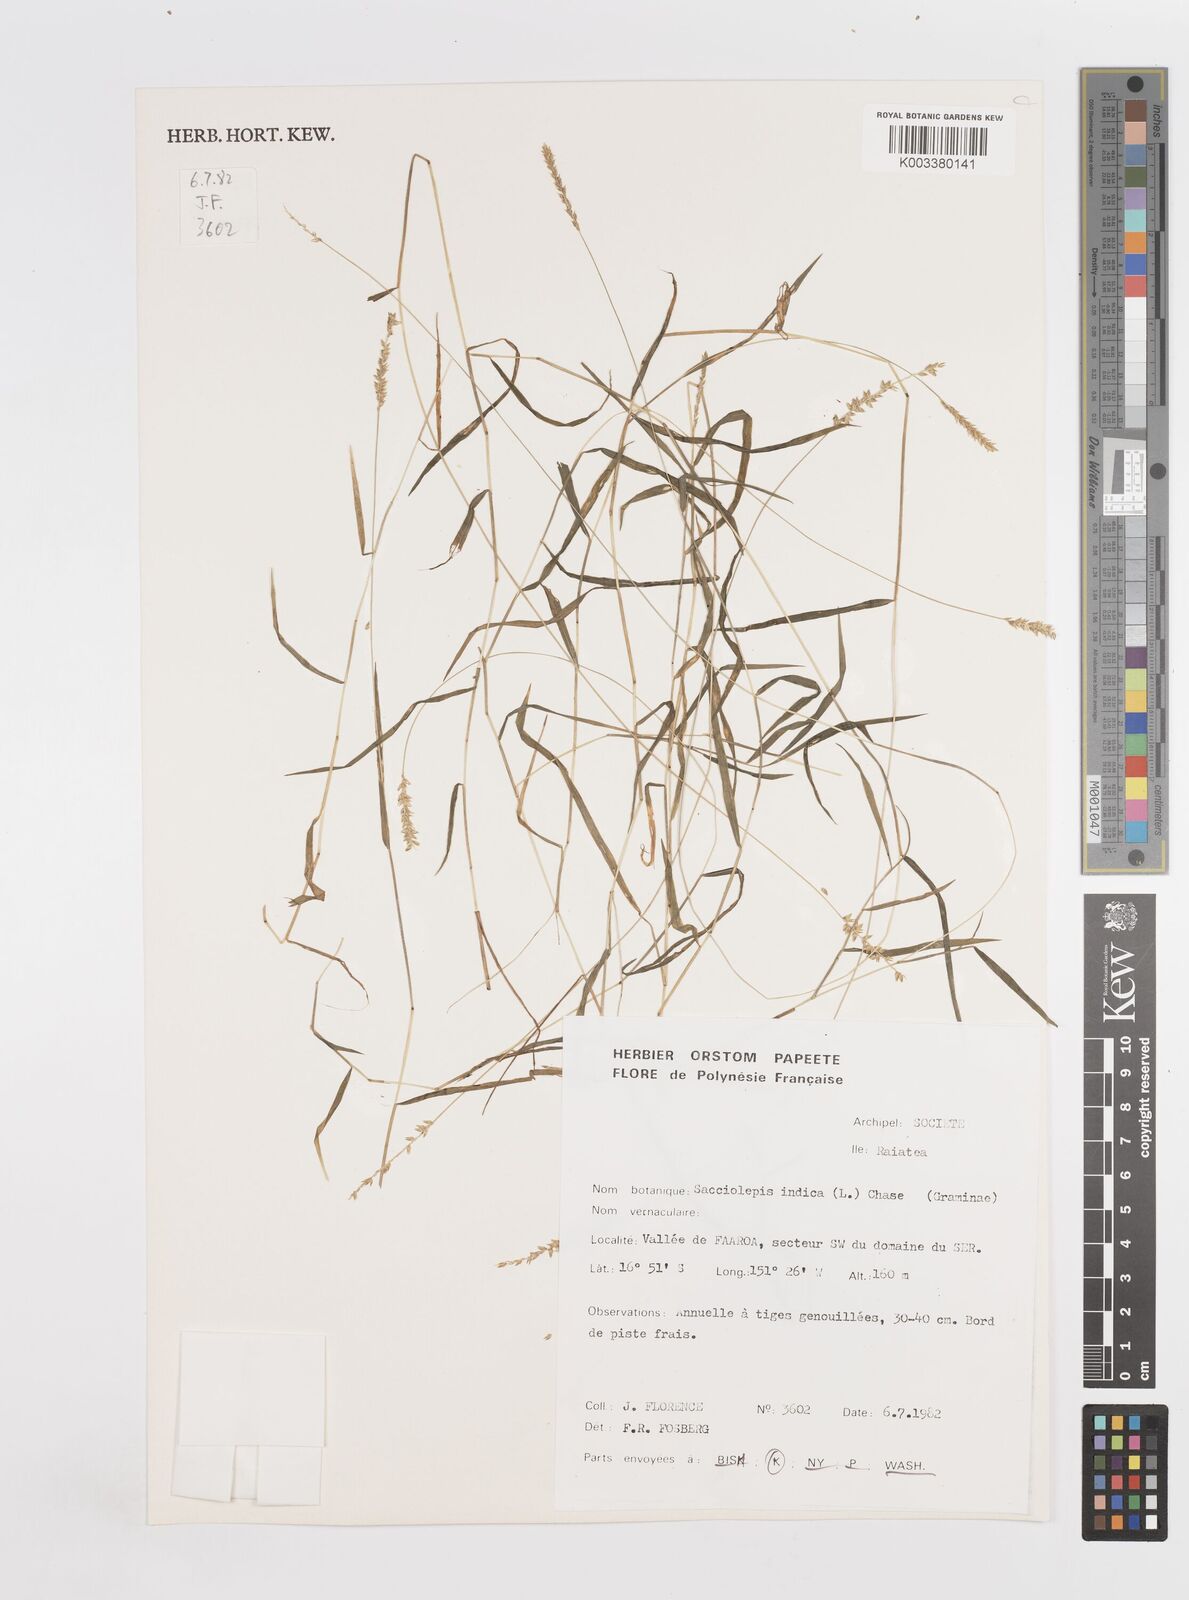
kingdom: Plantae
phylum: Tracheophyta
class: Liliopsida
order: Poales
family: Poaceae
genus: Sacciolepis
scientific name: Sacciolepis indica
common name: Glenwoodgrass
